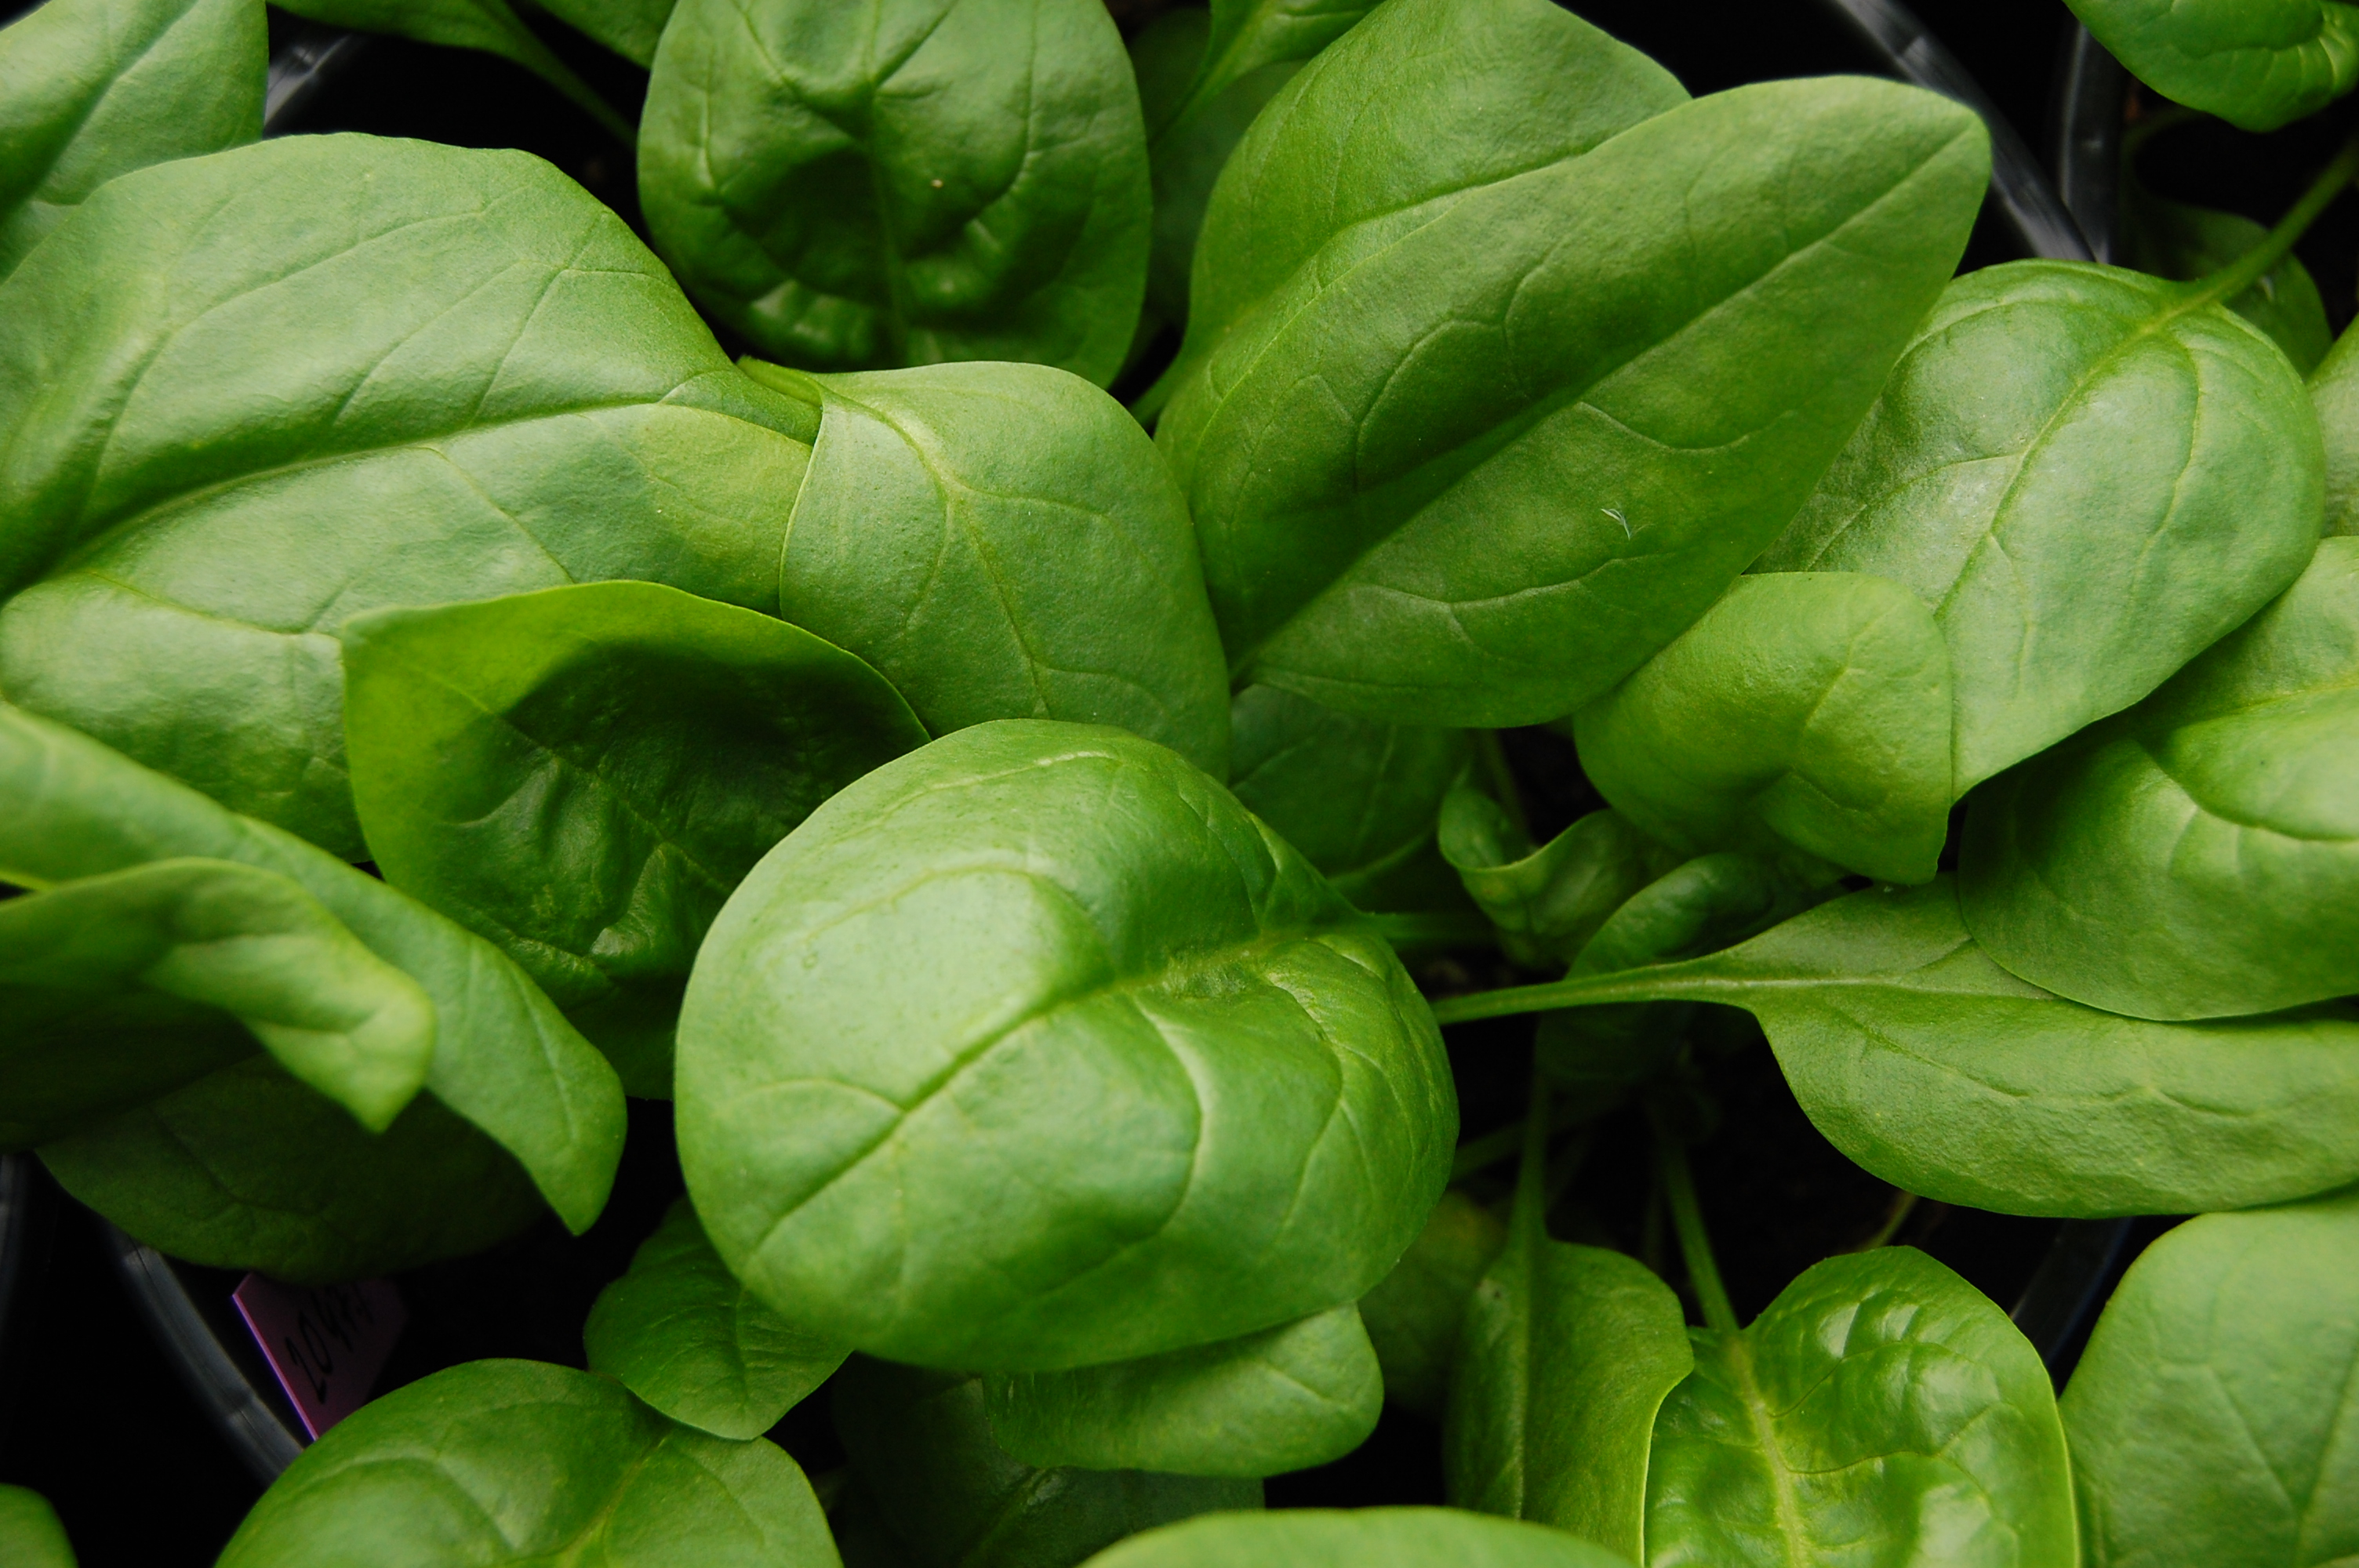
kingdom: Plantae
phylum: Tracheophyta
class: Magnoliopsida
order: Caryophyllales
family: Amaranthaceae
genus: Spinacia
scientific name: Spinacia oleracea
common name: Spinach
